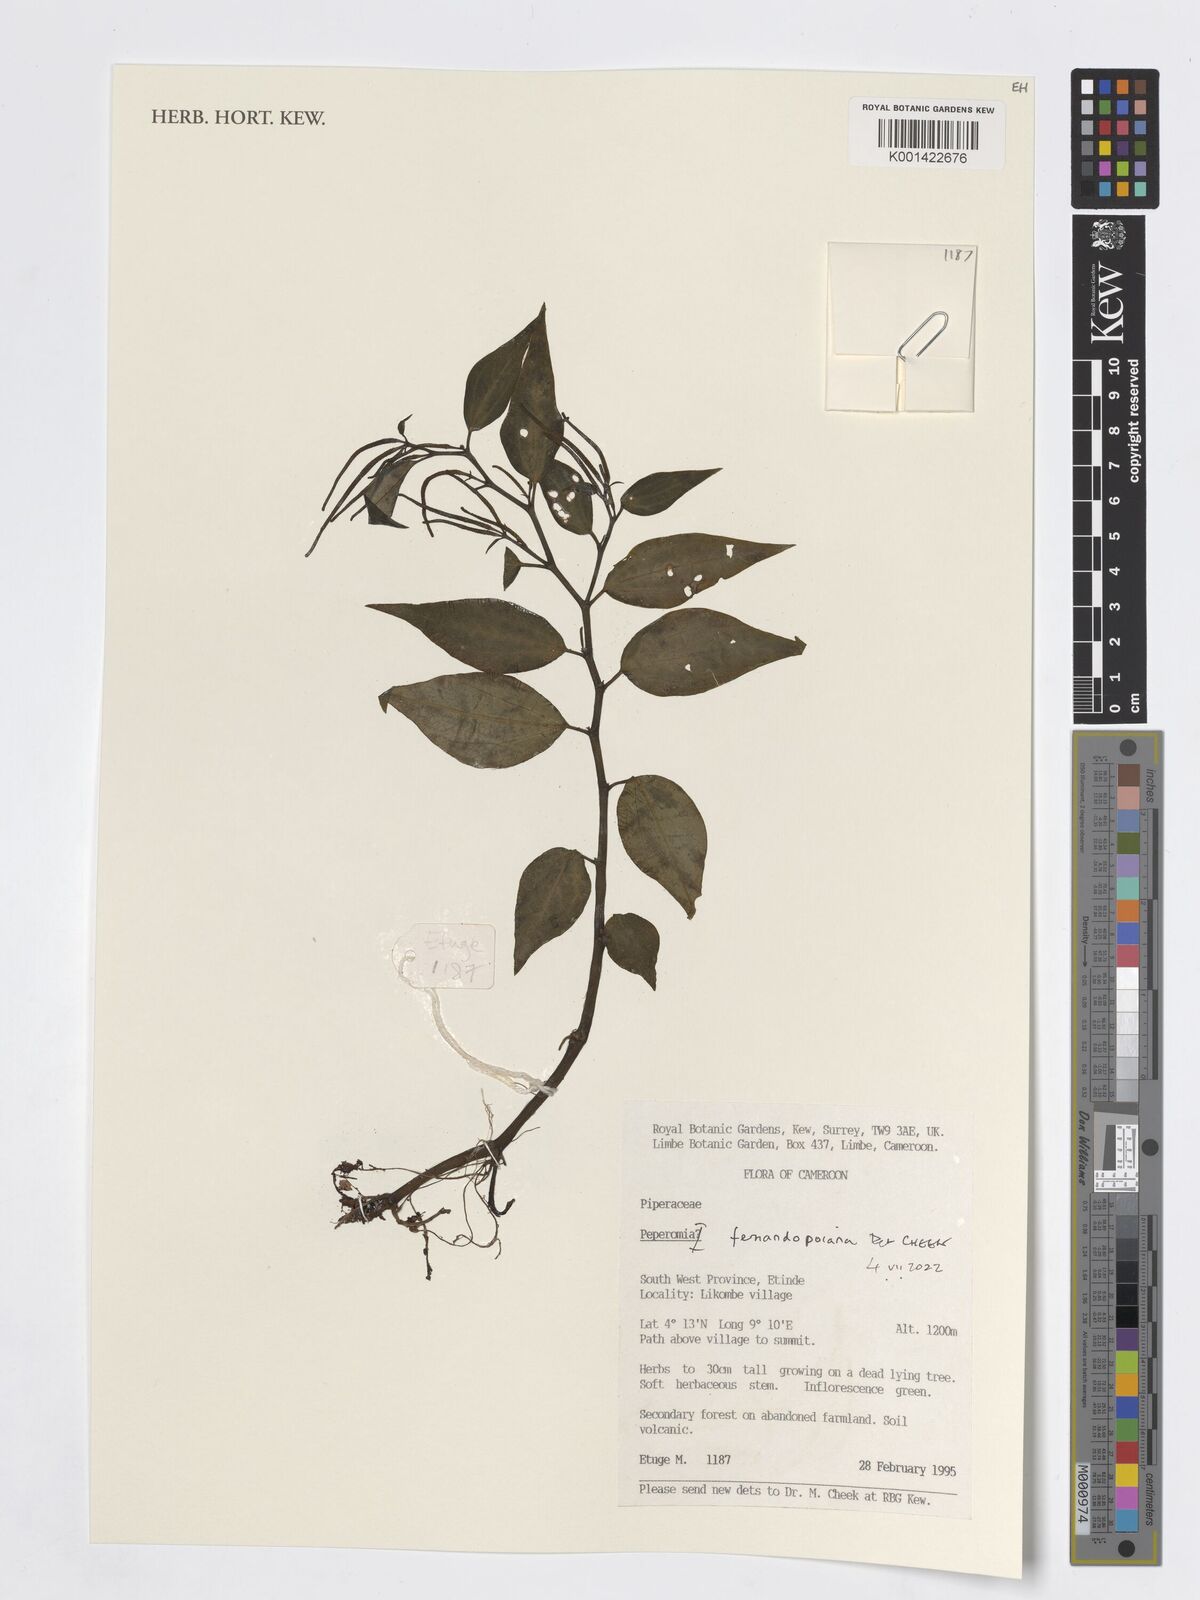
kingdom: Plantae
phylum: Tracheophyta
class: Magnoliopsida
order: Piperales
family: Piperaceae
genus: Peperomia
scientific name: Peperomia fernandopoiana
